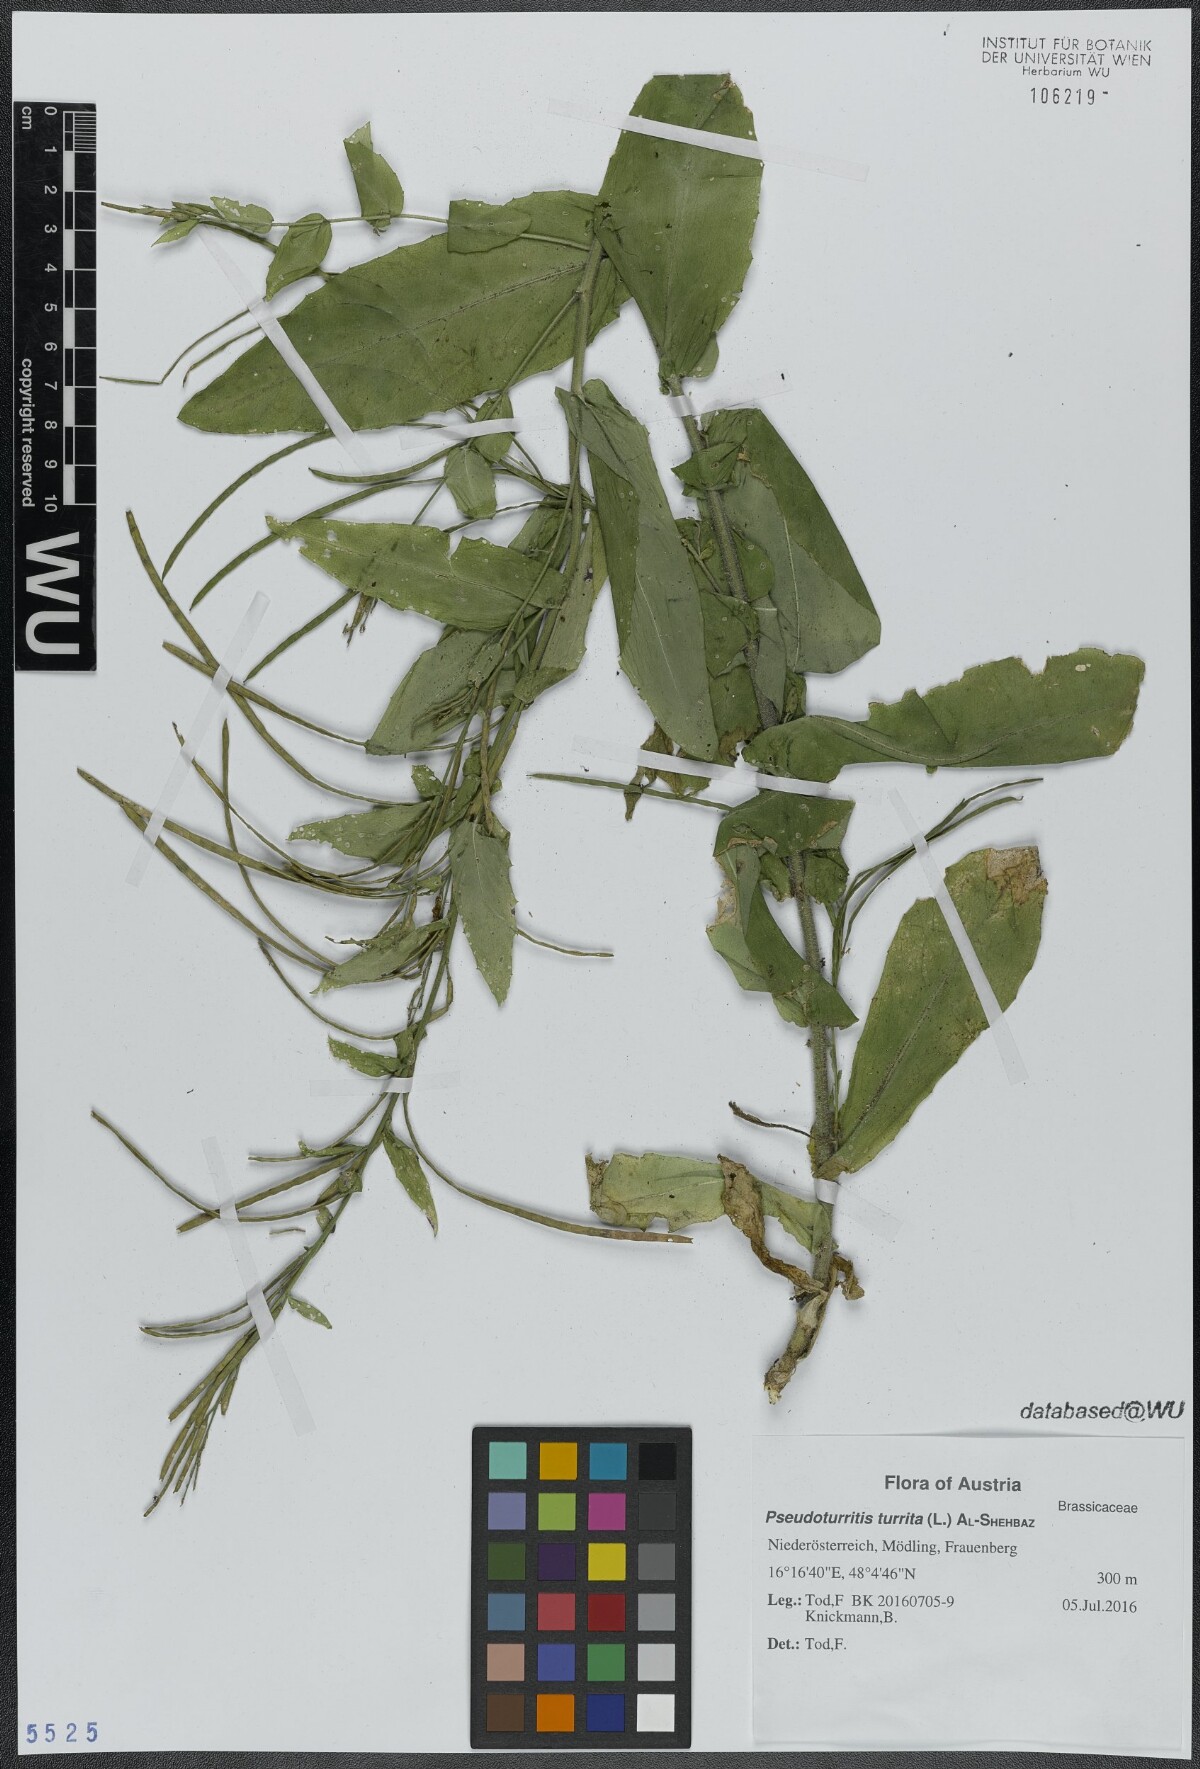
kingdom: Plantae
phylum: Tracheophyta
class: Magnoliopsida
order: Brassicales
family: Brassicaceae
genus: Pseudoturritis
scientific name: Pseudoturritis turrita
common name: Tower cress
